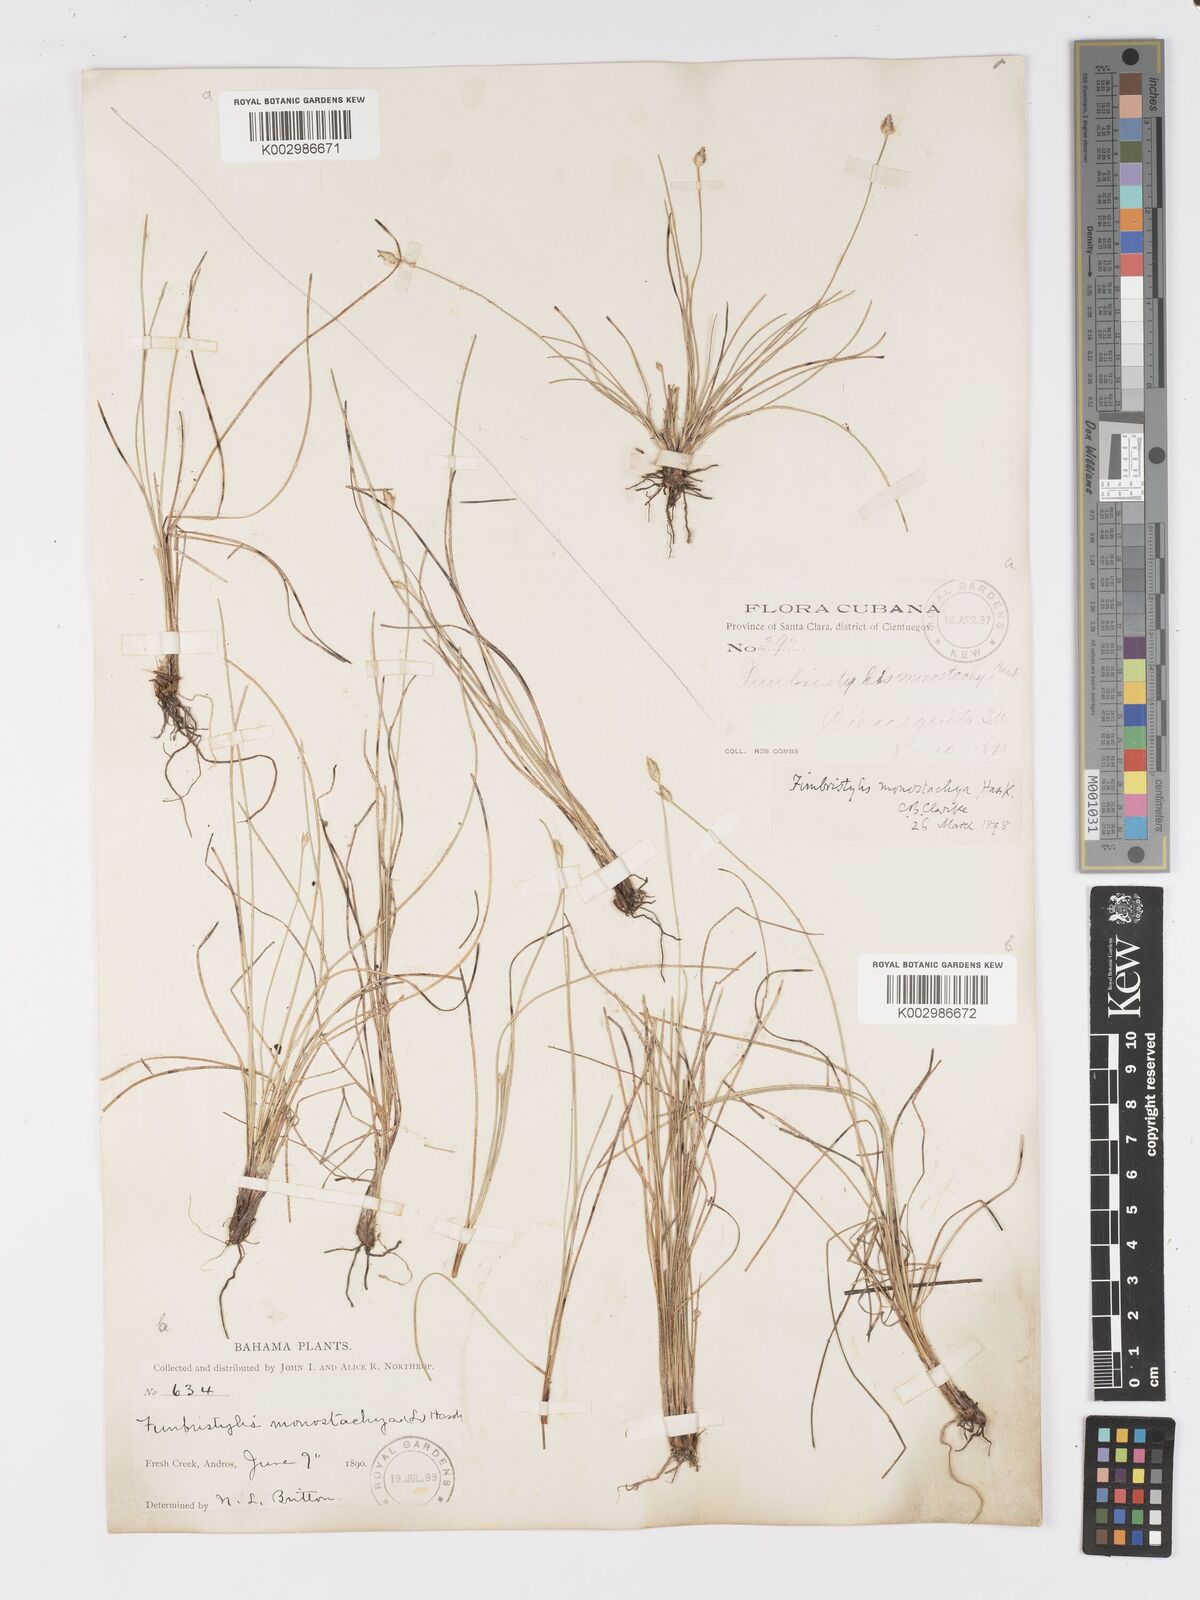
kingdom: Plantae
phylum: Tracheophyta
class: Liliopsida
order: Poales
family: Cyperaceae
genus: Abildgaardia
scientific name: Abildgaardia ovata
